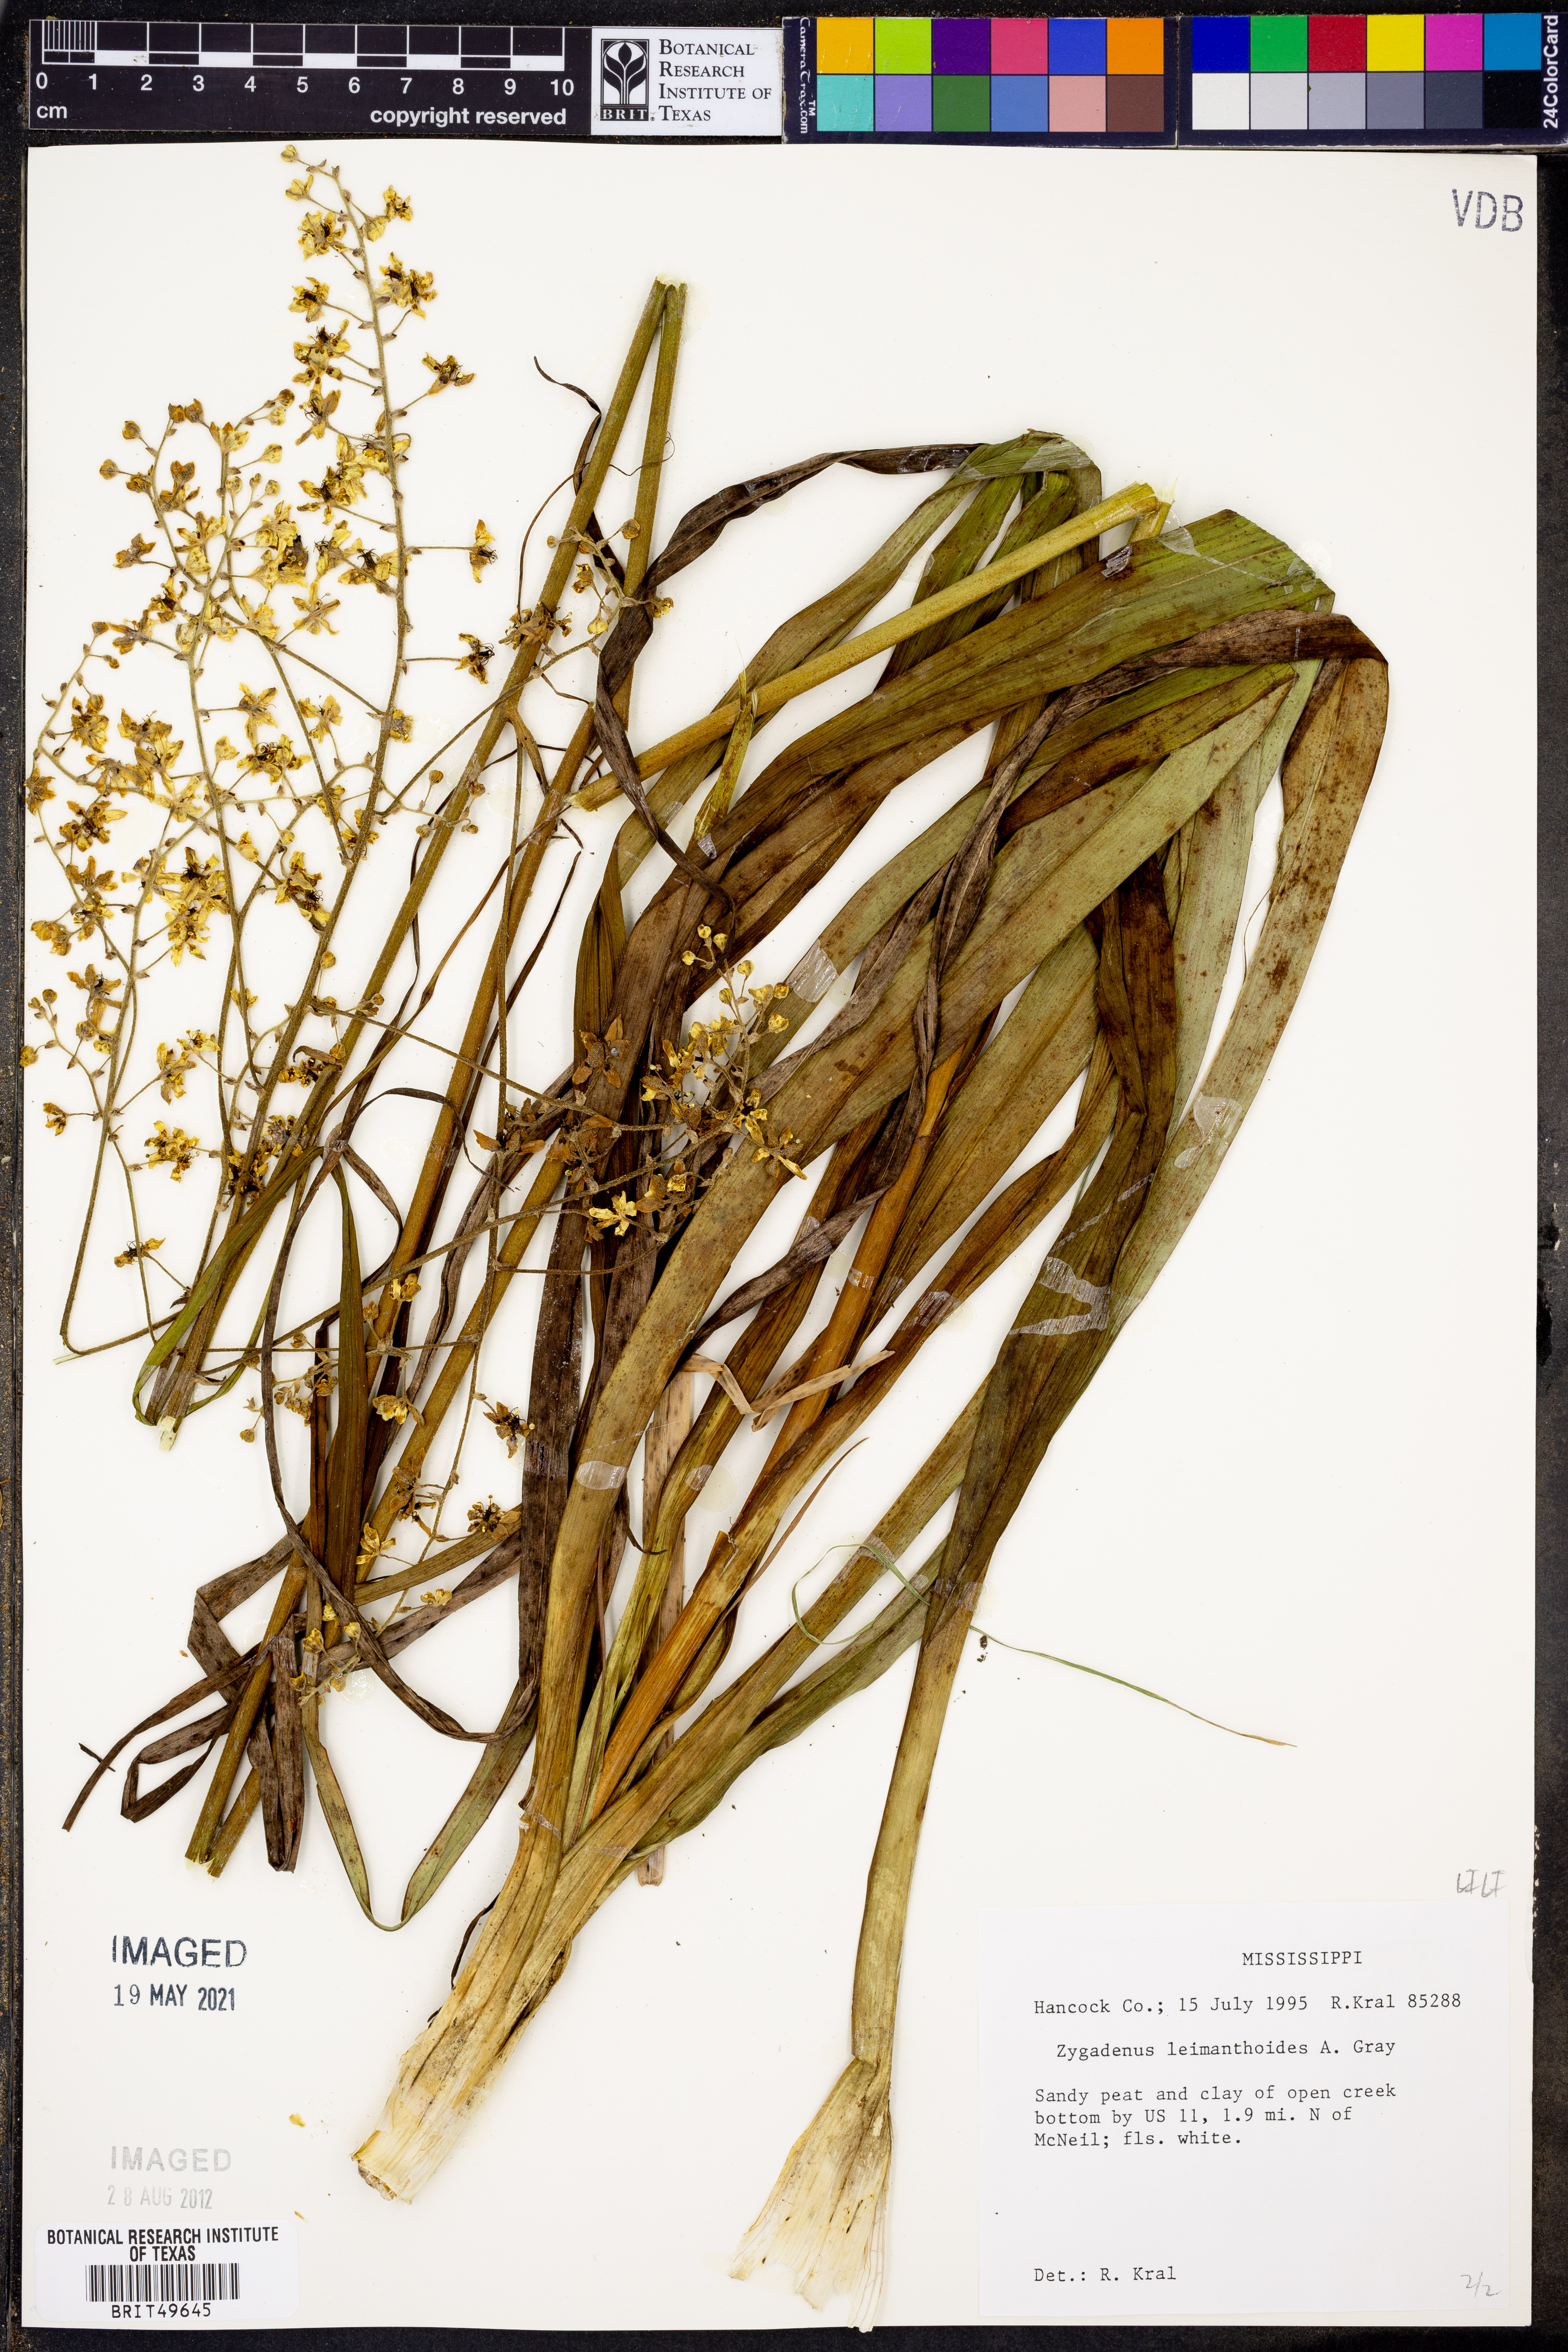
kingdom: Plantae
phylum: Tracheophyta
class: Liliopsida
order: Liliales
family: Melanthiaceae
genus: Stenanthium
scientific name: Stenanthium leimanthoides
